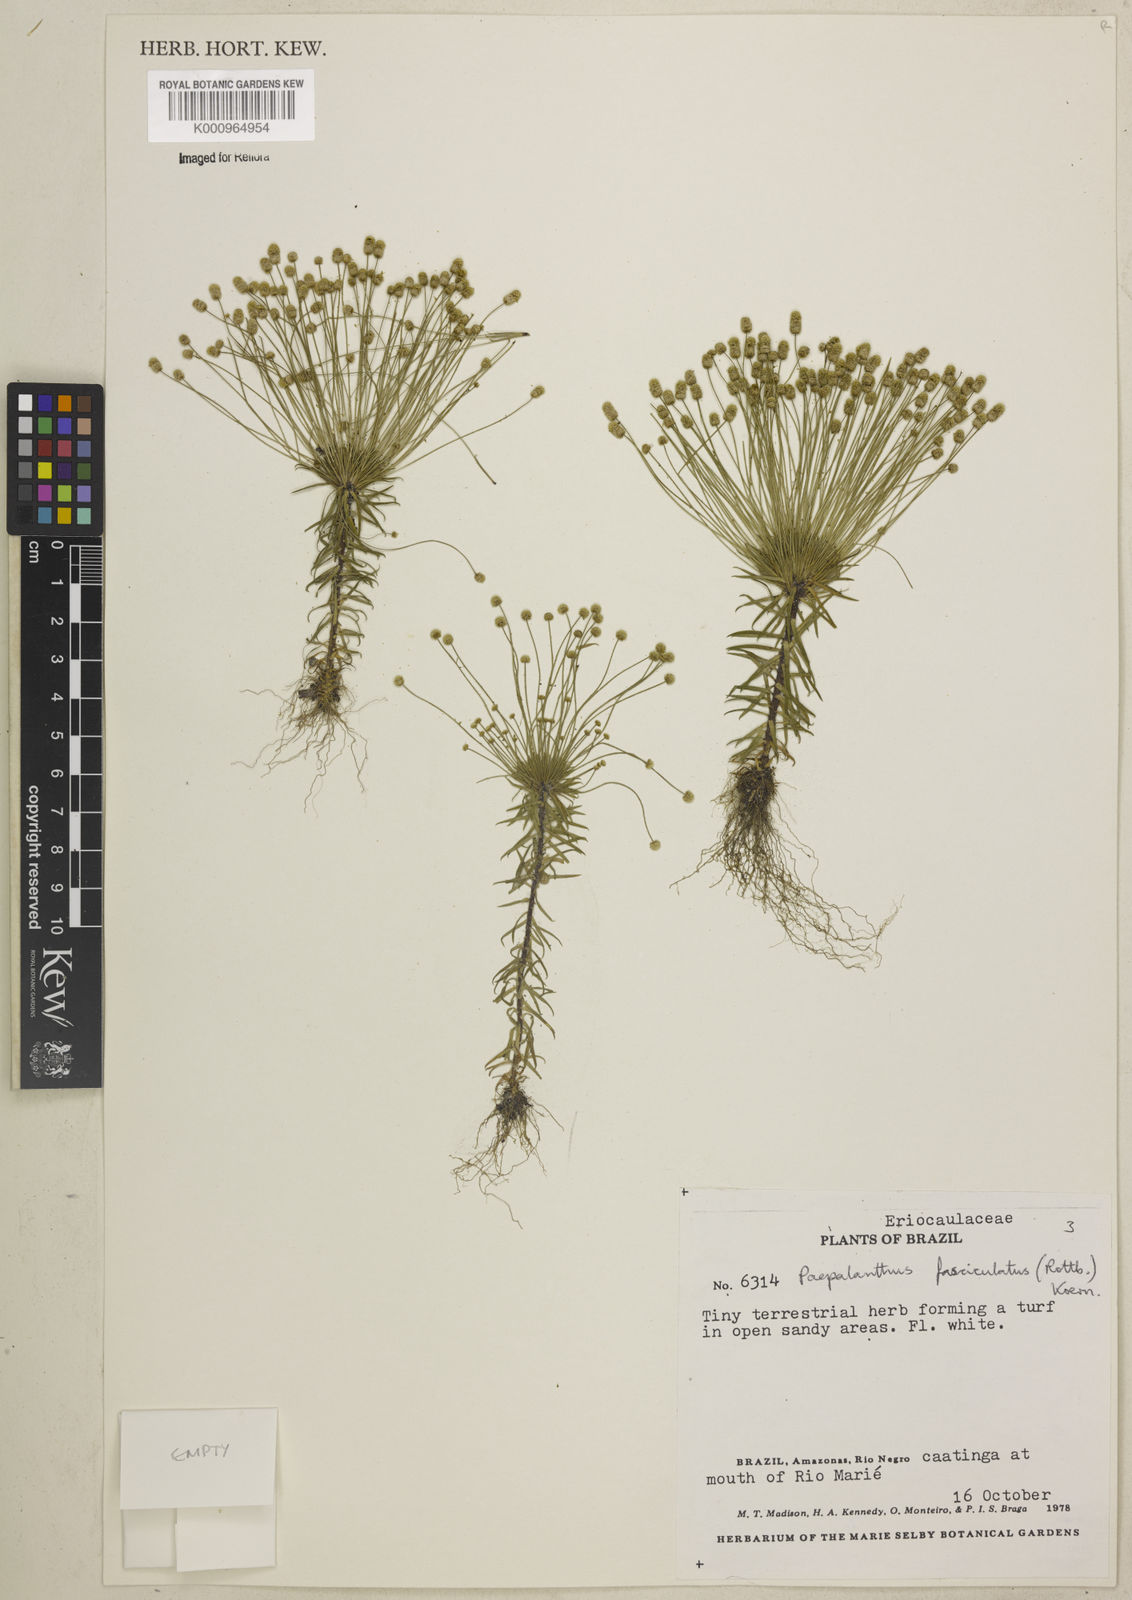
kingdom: Plantae
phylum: Tracheophyta
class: Liliopsida
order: Poales
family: Eriocaulaceae
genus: Paepalanthus
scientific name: Paepalanthus fasciculatus
